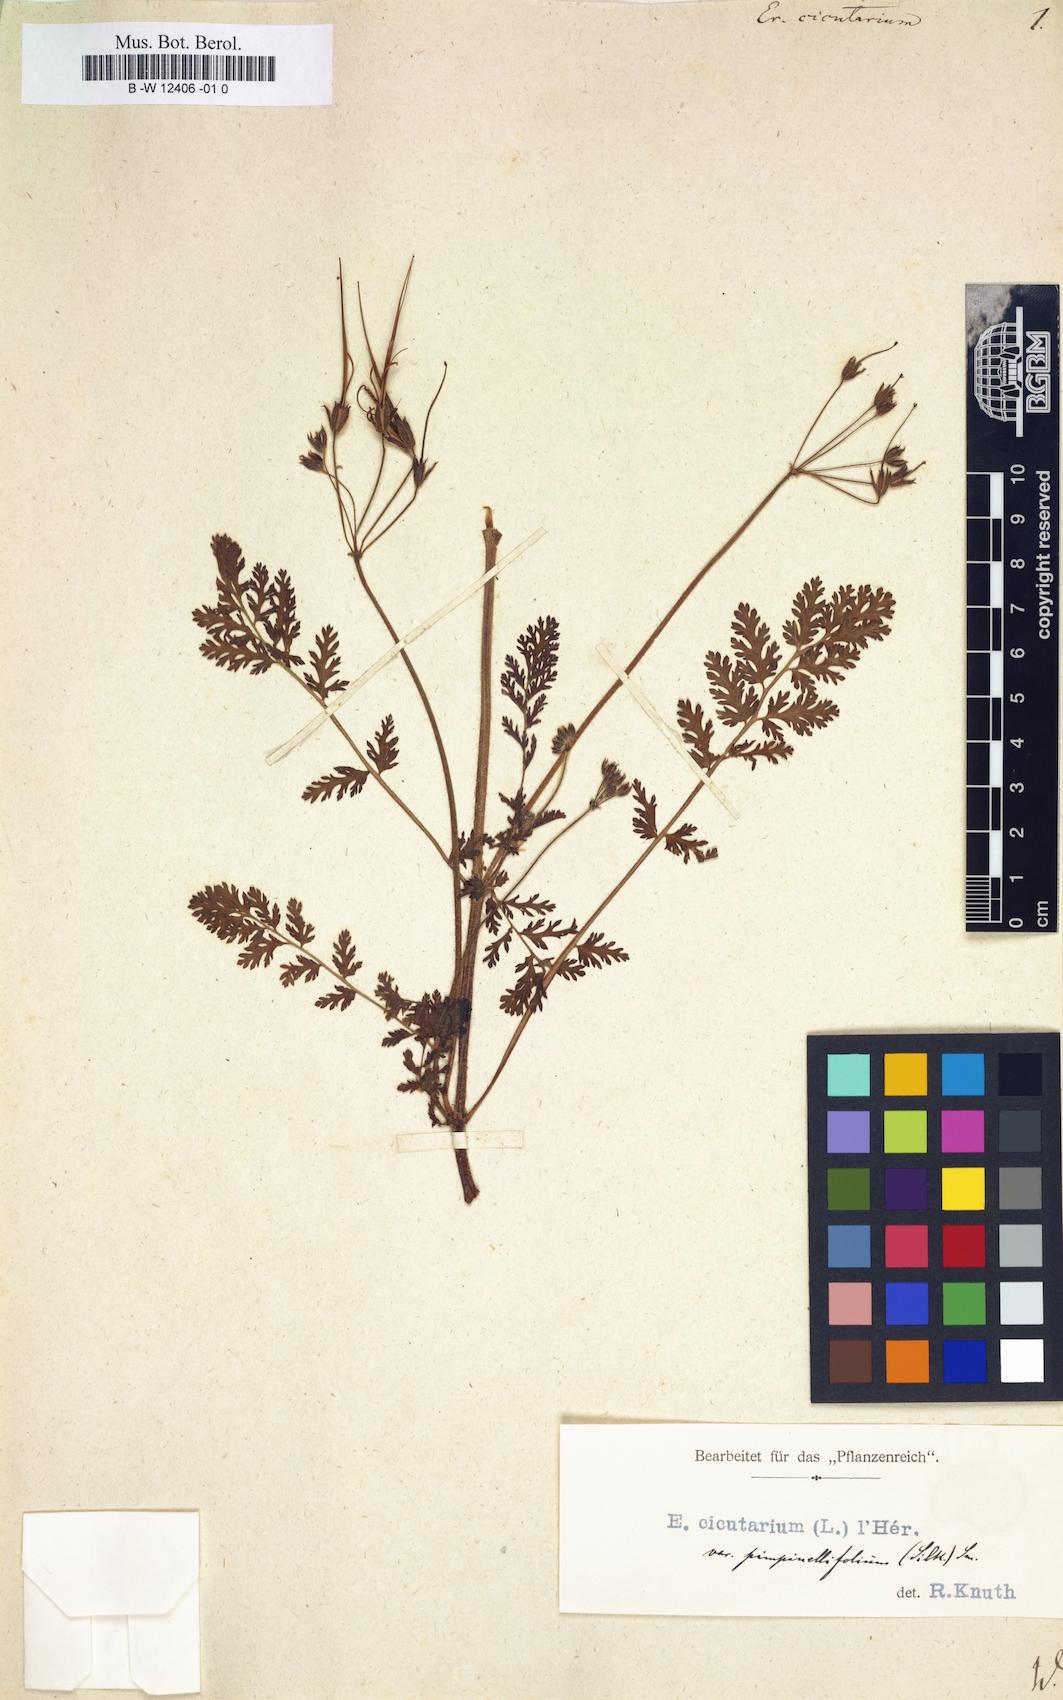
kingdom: Plantae
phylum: Tracheophyta
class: Magnoliopsida
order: Geraniales
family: Geraniaceae
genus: Erodium
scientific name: Erodium cicutarium
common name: Common stork's-bill
